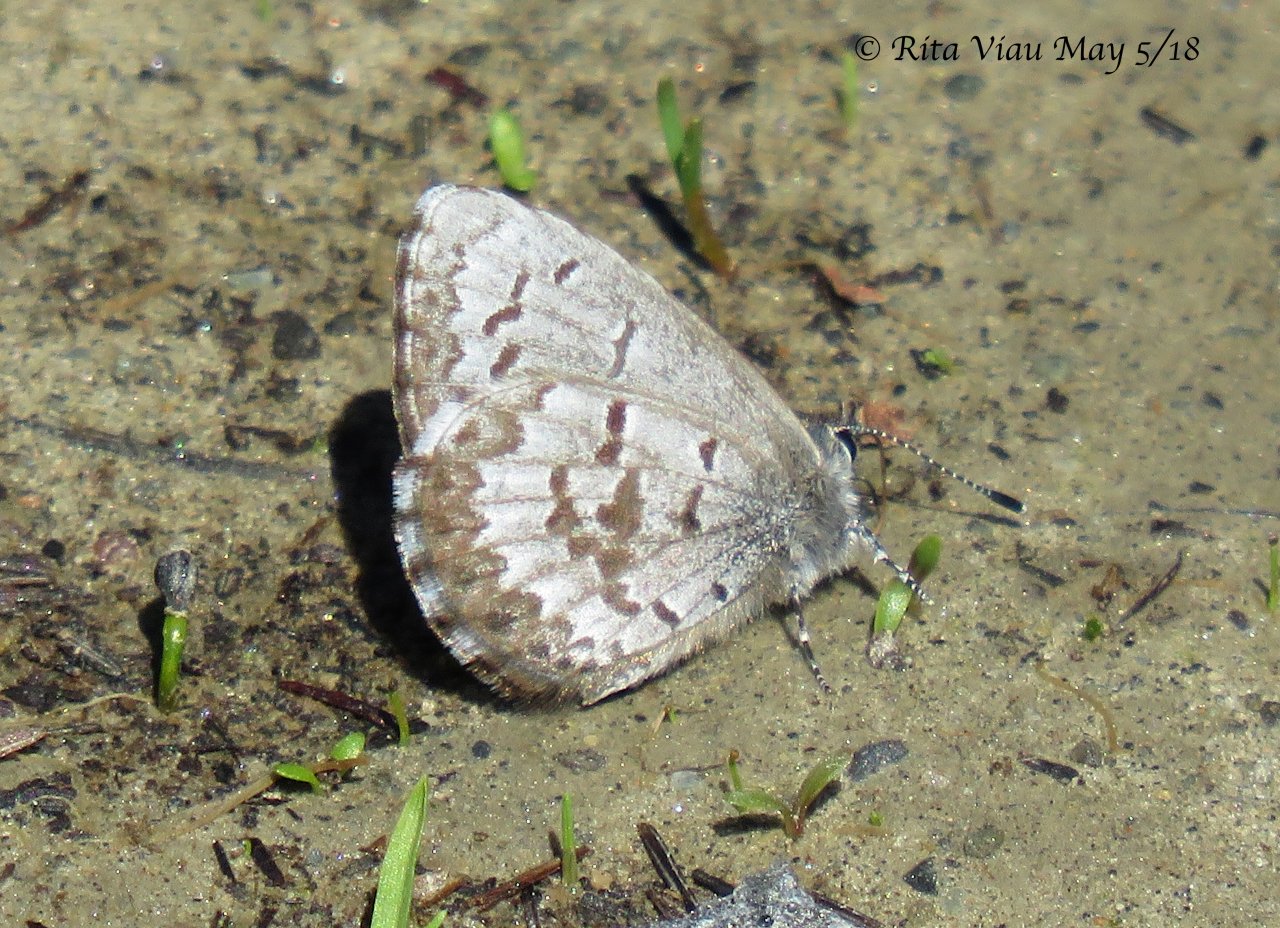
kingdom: Animalia
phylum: Arthropoda
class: Insecta
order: Lepidoptera
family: Lycaenidae
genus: Celastrina
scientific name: Celastrina lucia
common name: Northern Spring Azure
